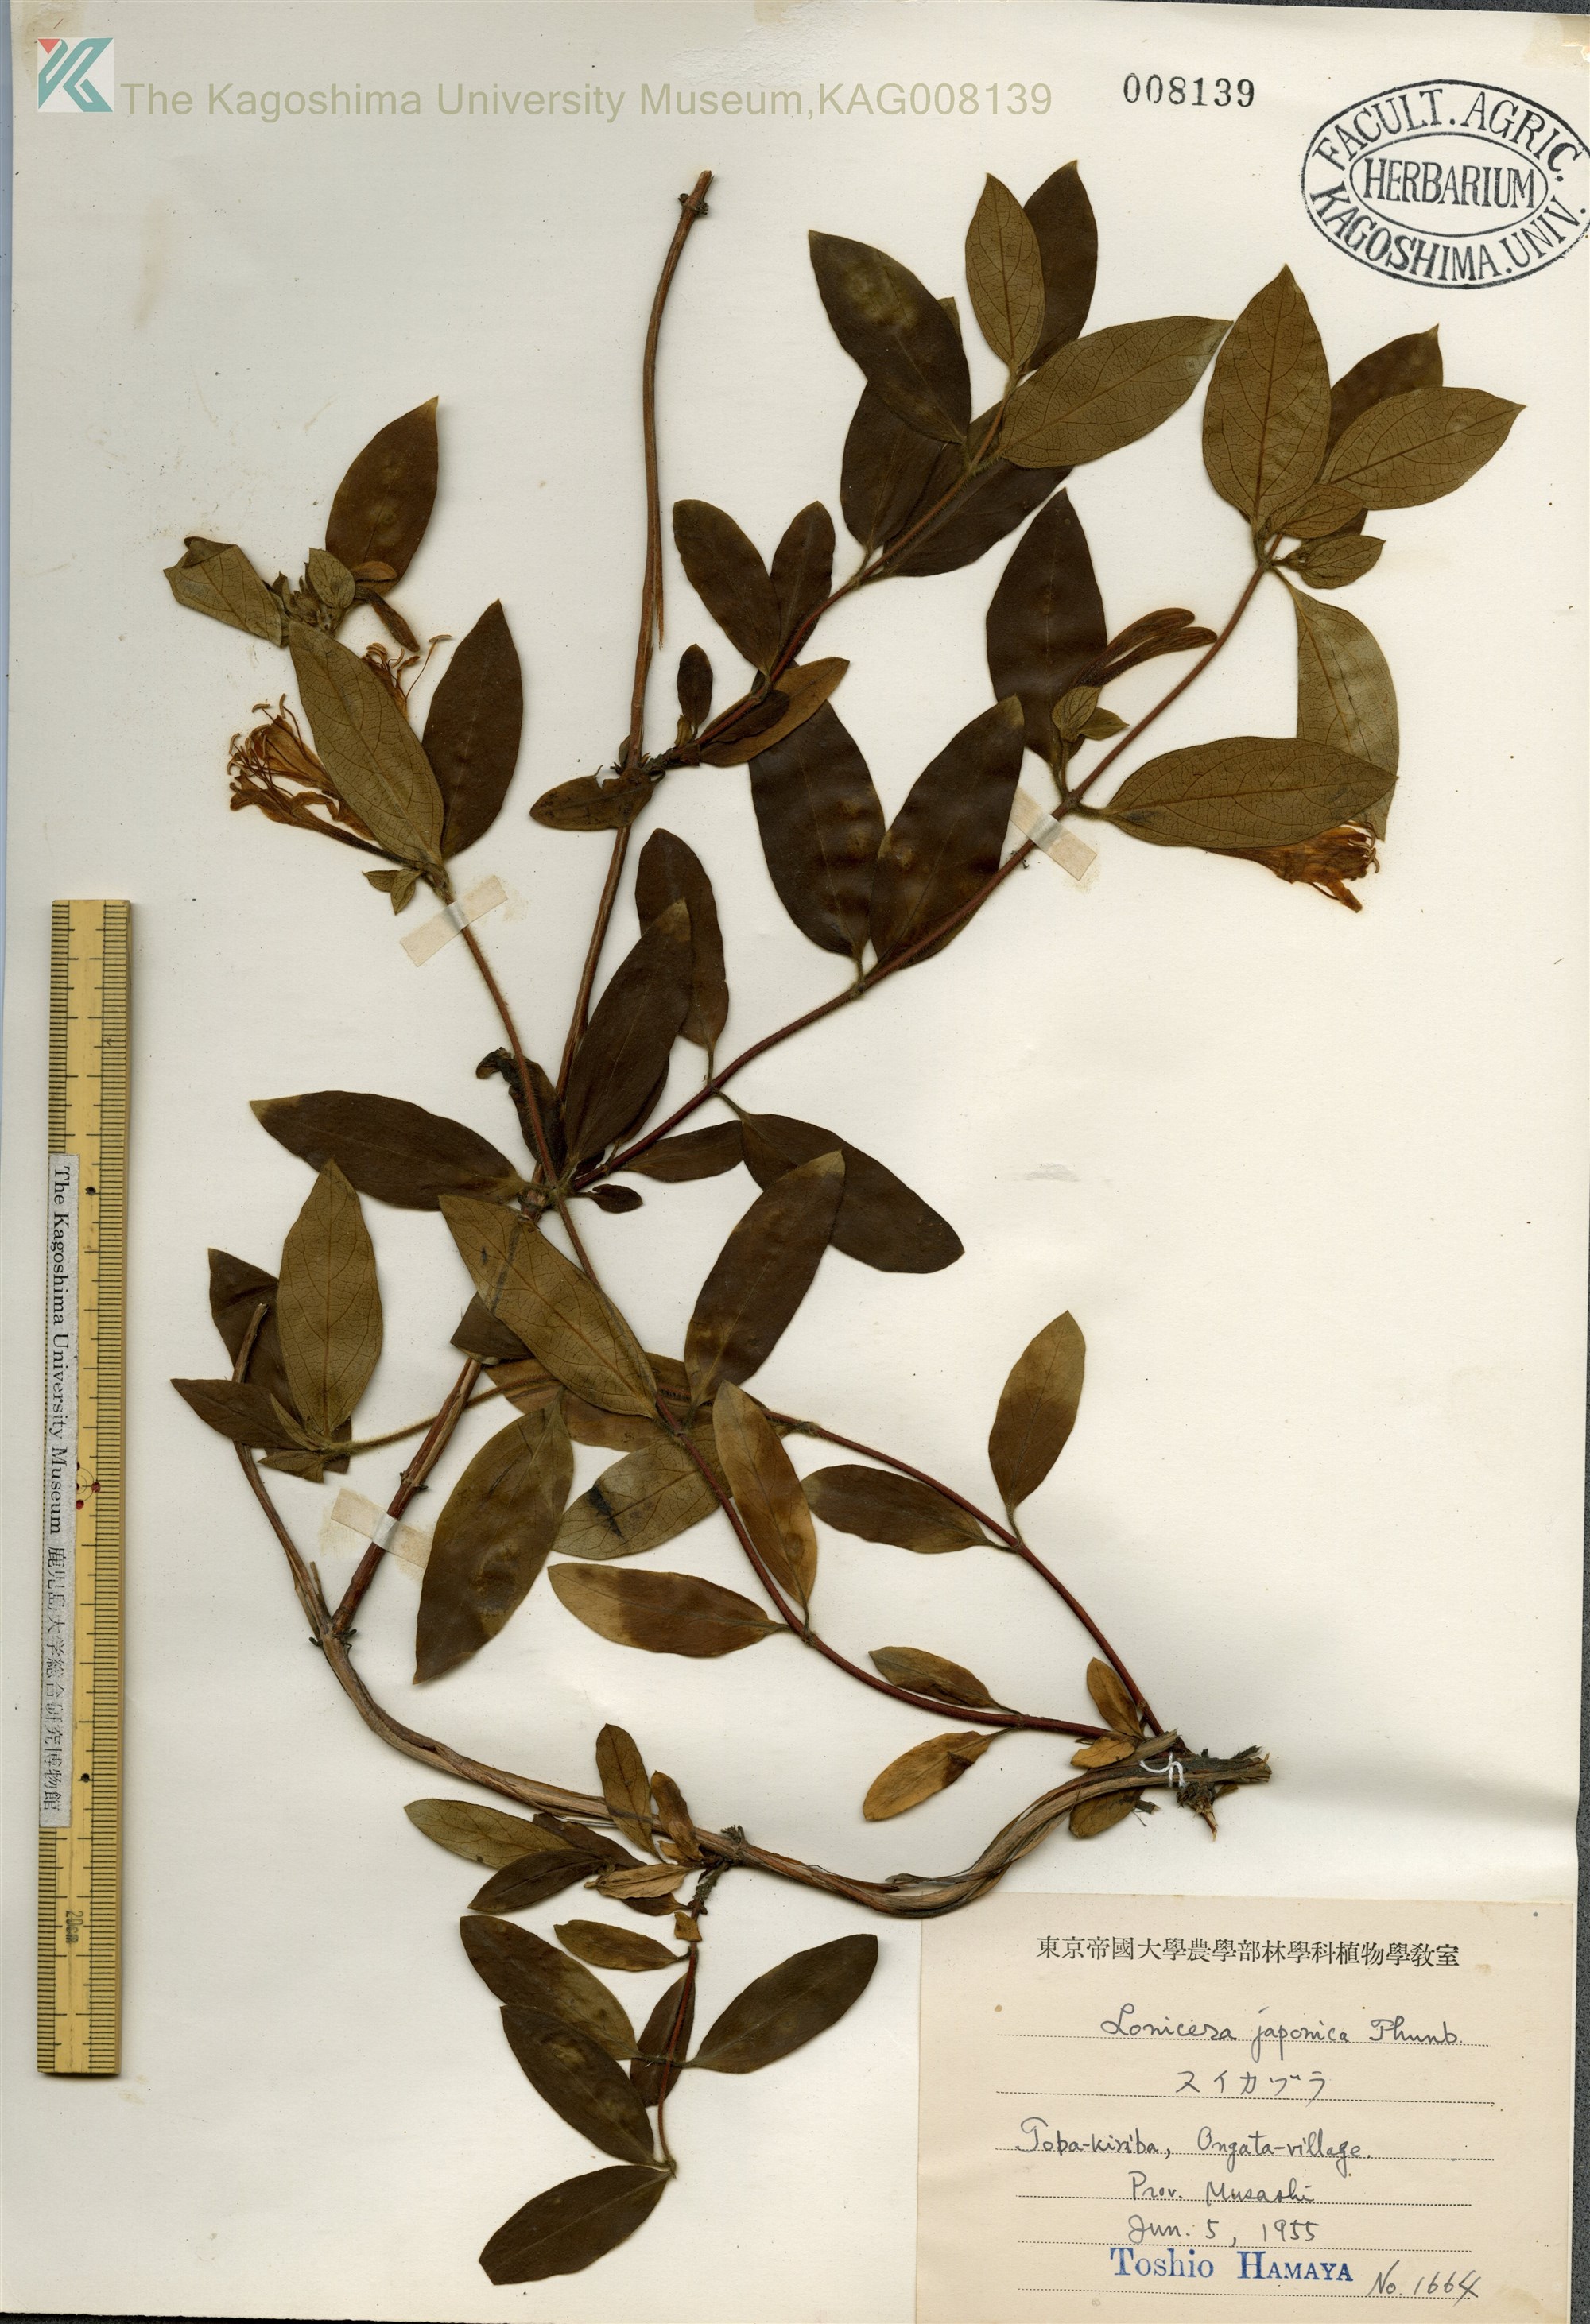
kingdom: Plantae
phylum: Tracheophyta
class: Magnoliopsida
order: Dipsacales
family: Caprifoliaceae
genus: Lonicera
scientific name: Lonicera japonica
